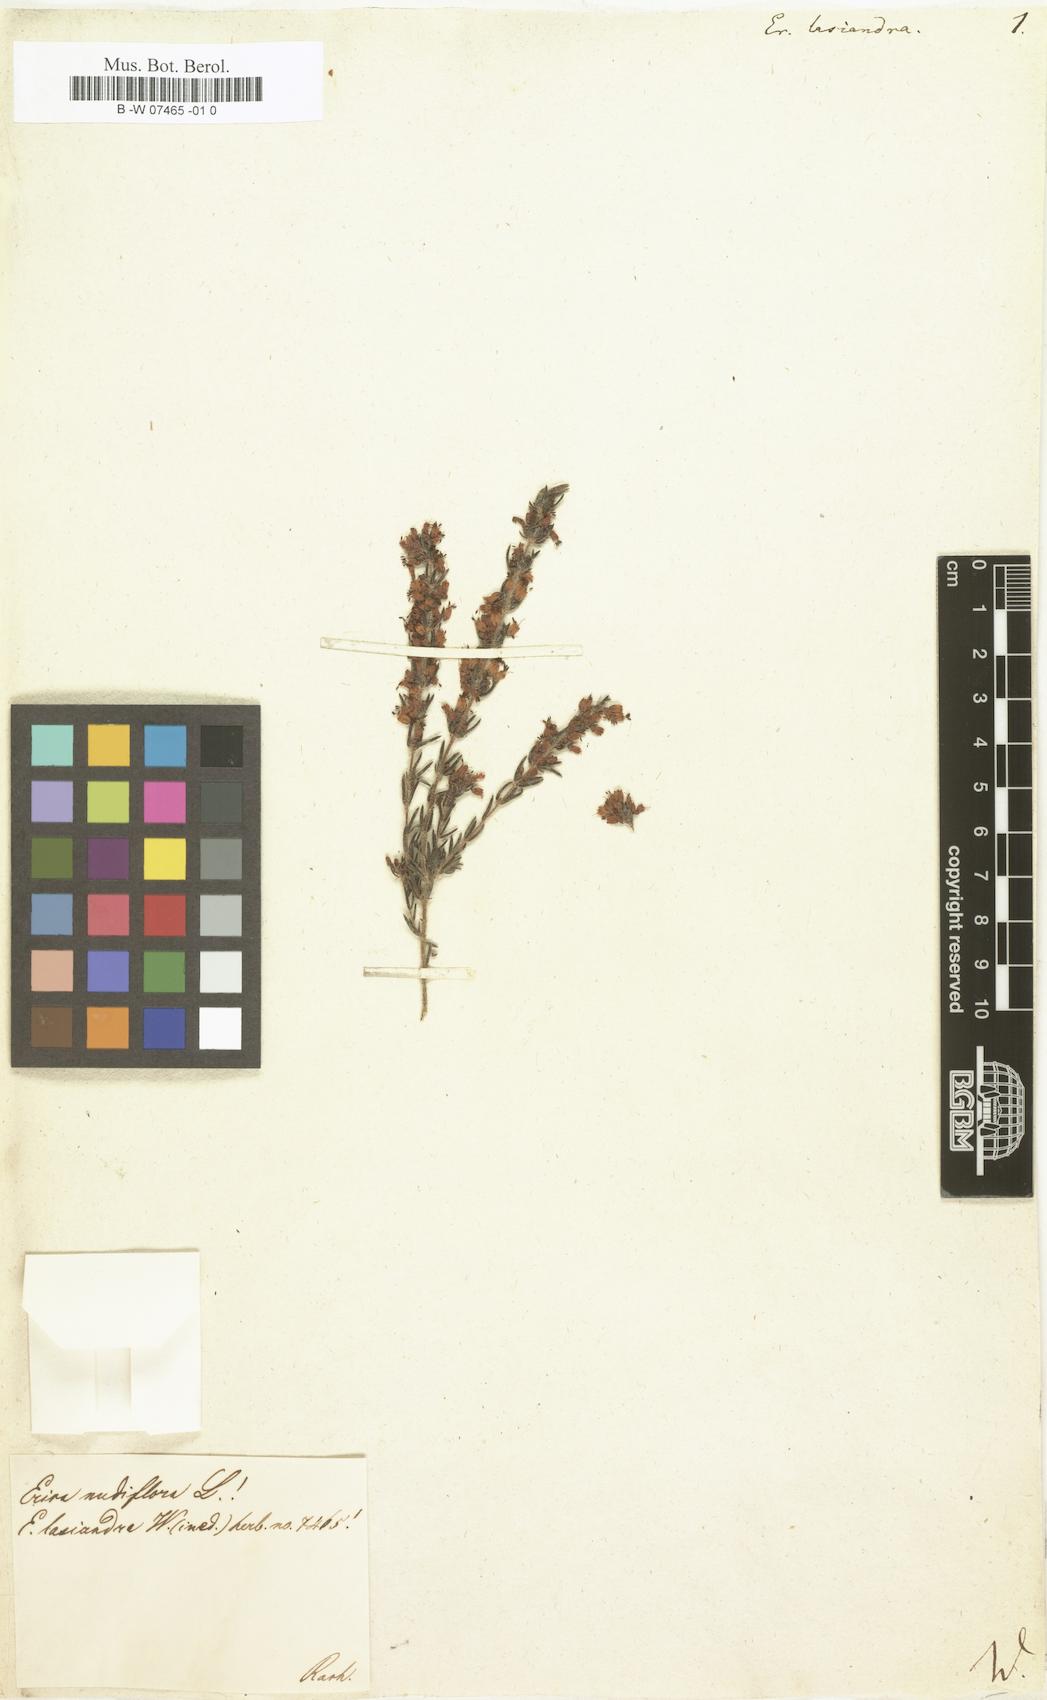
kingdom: Plantae
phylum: Tracheophyta
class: Magnoliopsida
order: Ericales
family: Ericaceae
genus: Erica
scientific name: Erica rubens
